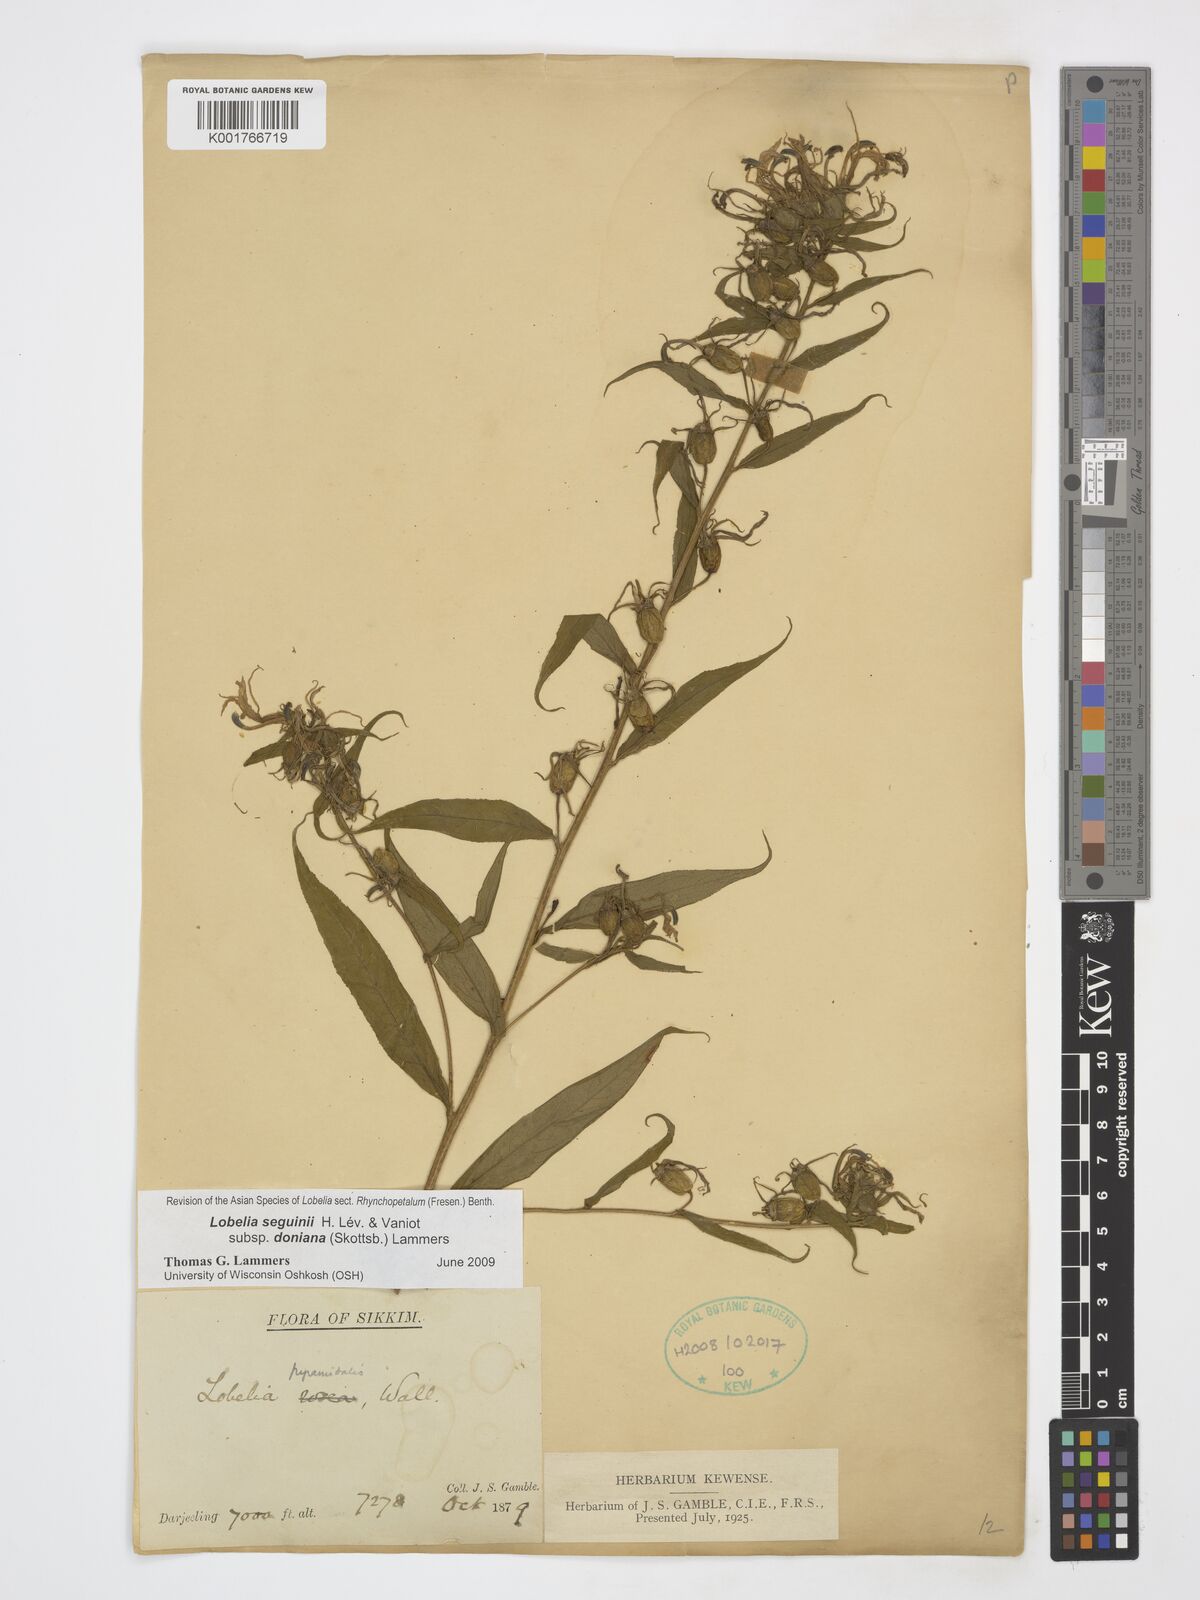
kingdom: Plantae
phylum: Tracheophyta
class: Magnoliopsida
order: Asterales
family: Campanulaceae
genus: Lobelia
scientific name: Lobelia seguinii
